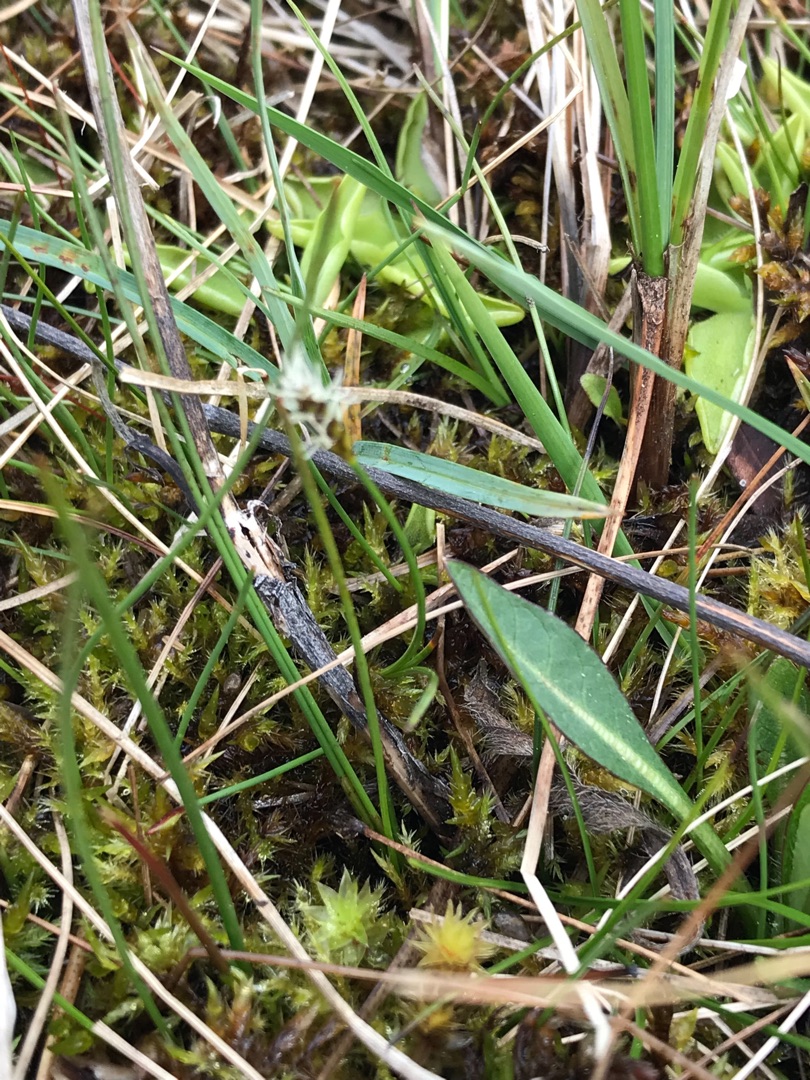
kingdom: Plantae
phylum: Tracheophyta
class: Liliopsida
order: Poales
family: Cyperaceae
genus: Carex
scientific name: Carex dioica
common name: Tvebo star
